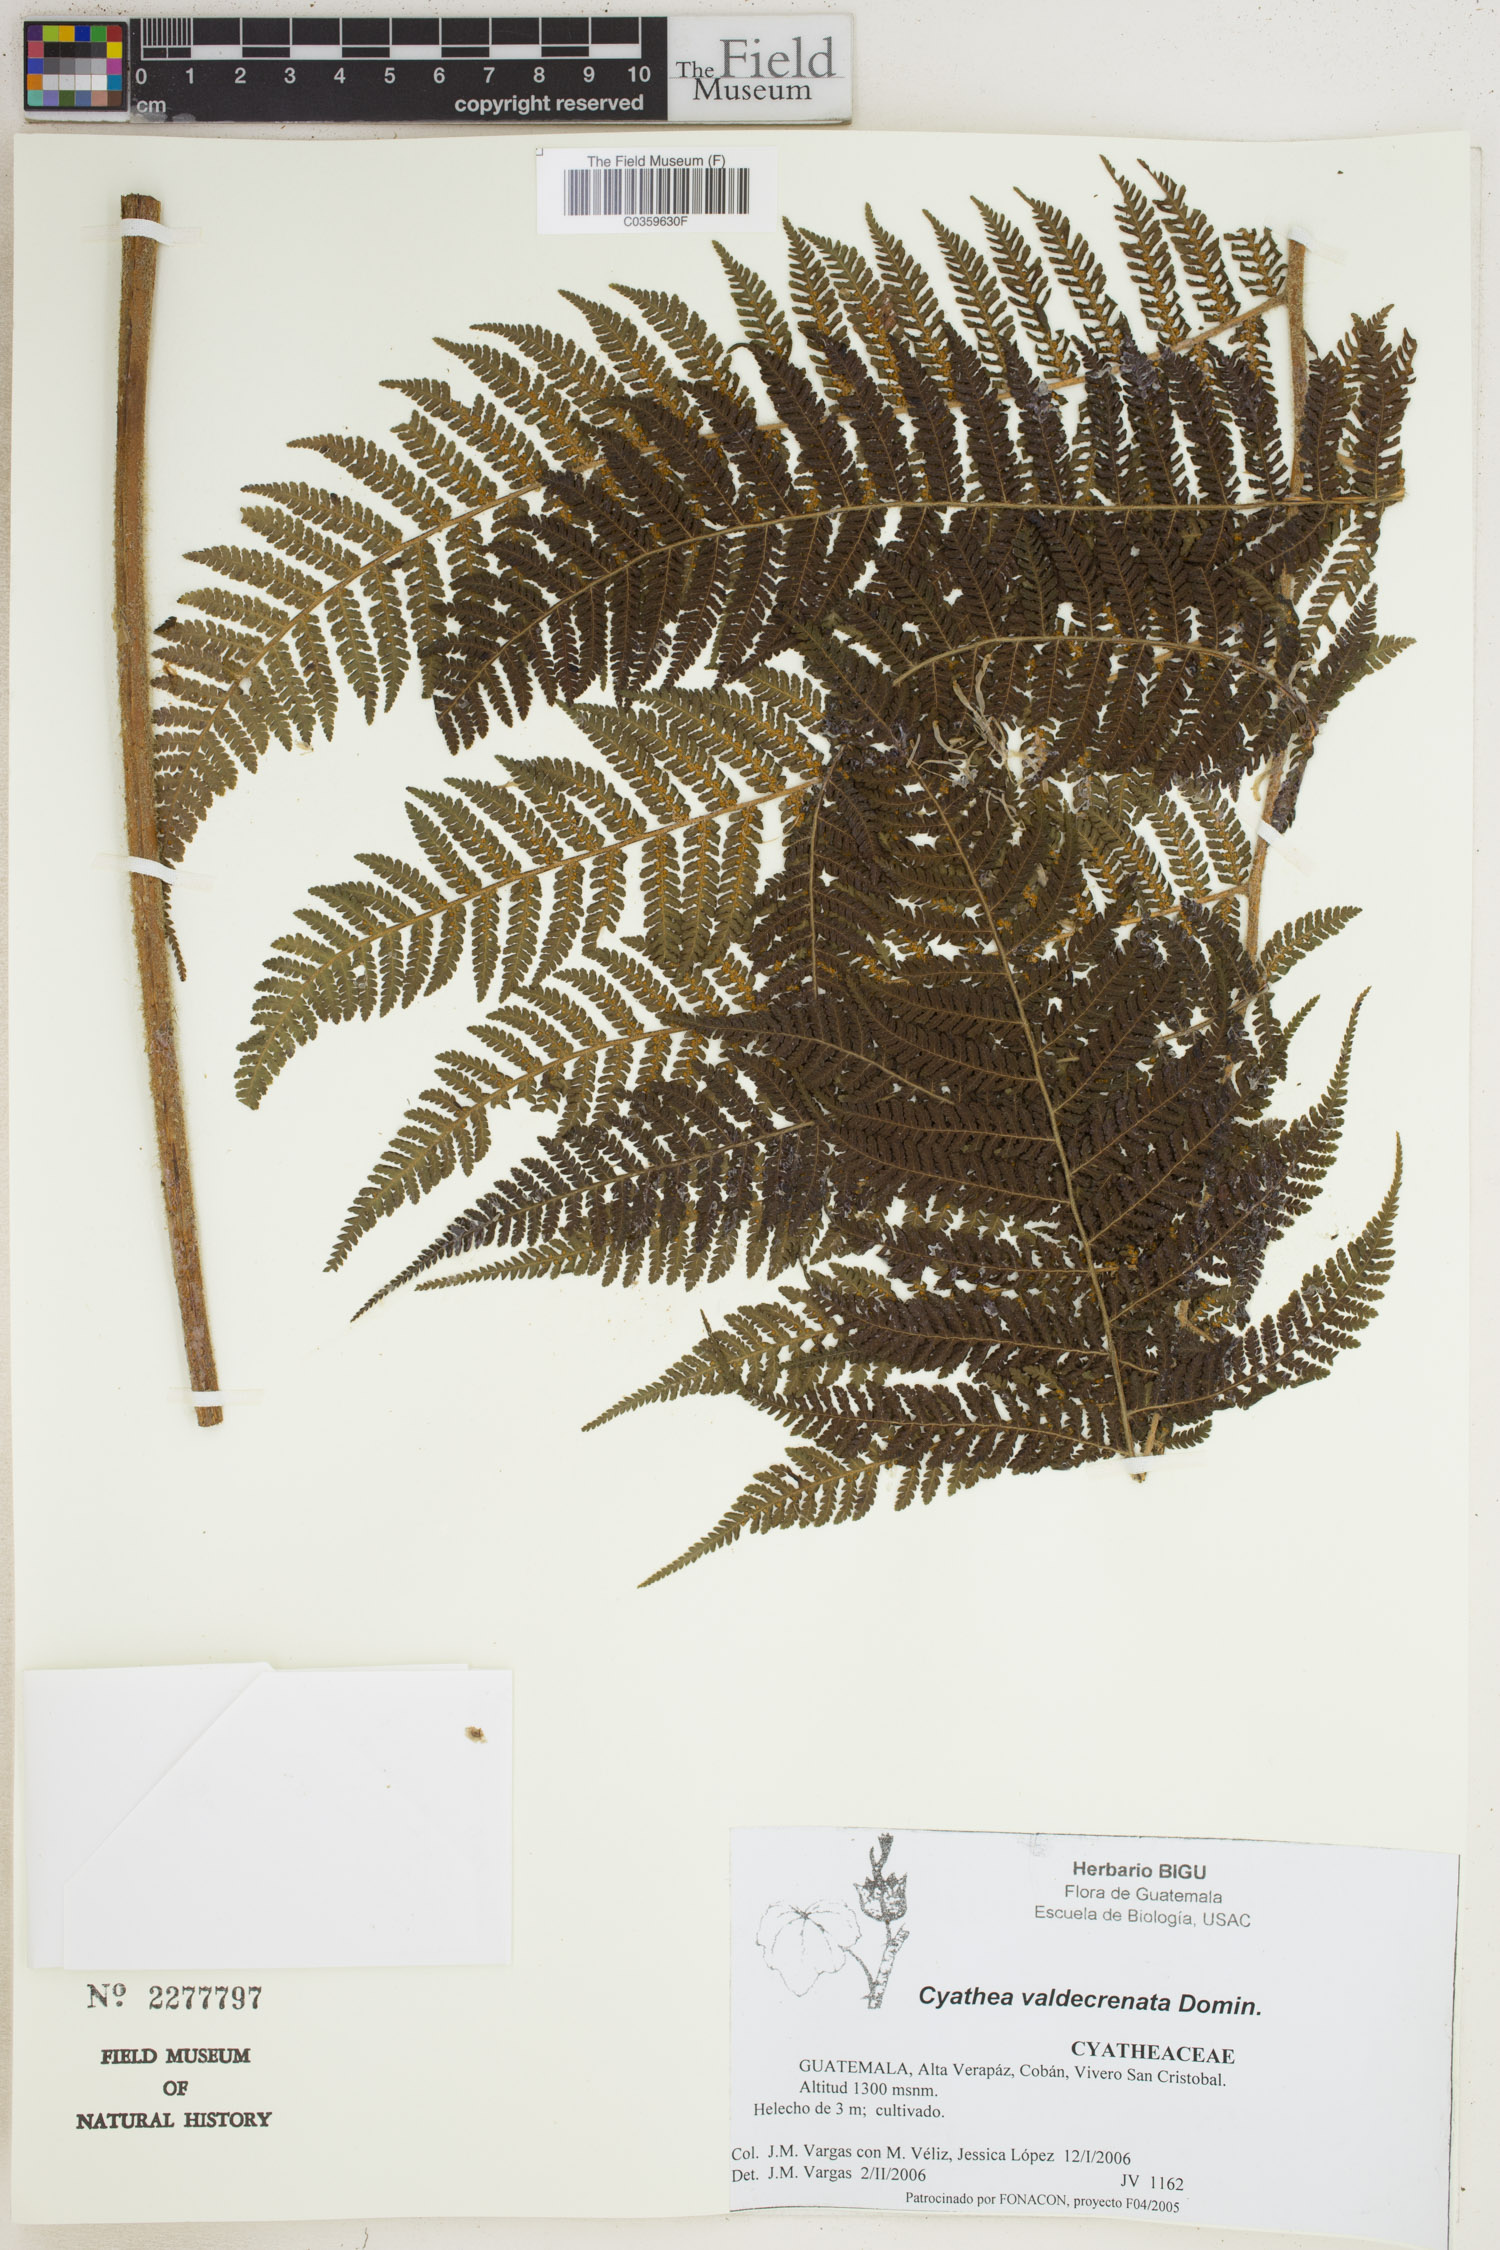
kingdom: Plantae
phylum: Tracheophyta
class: Polypodiopsida
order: Cyatheales
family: Cyatheaceae
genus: Cyathea
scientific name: Cyathea godmanii
